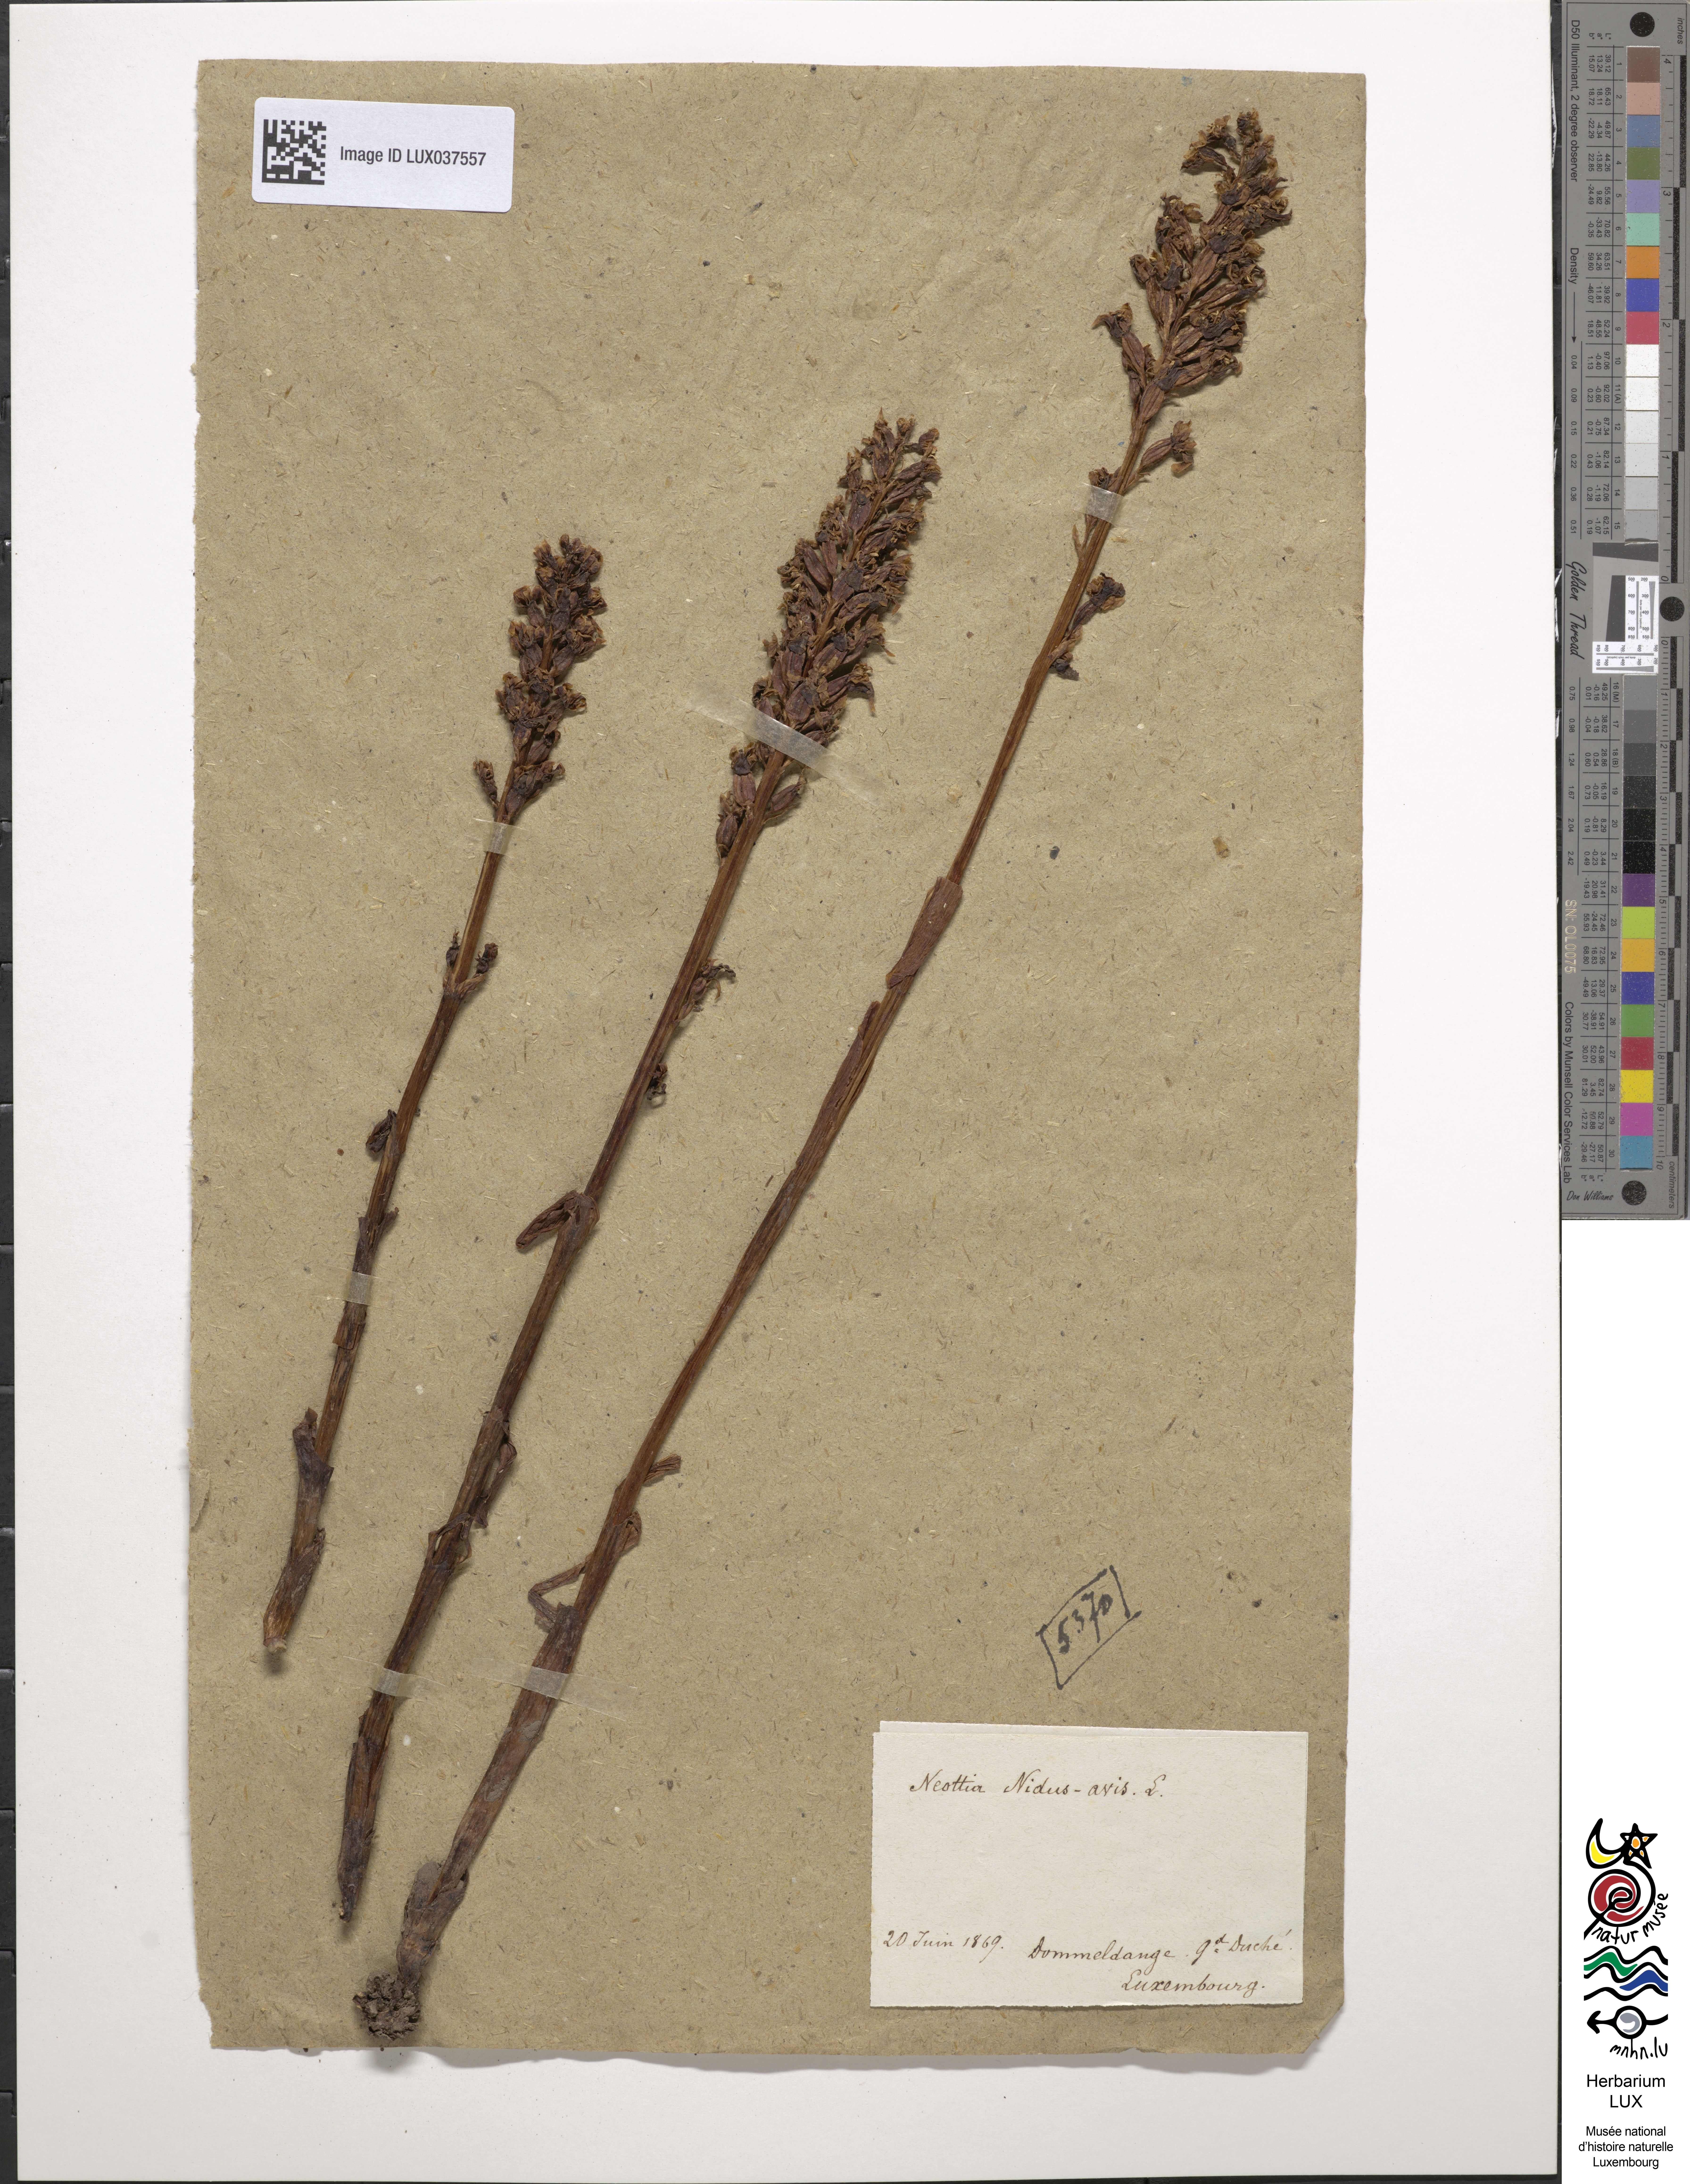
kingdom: Plantae
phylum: Tracheophyta
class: Liliopsida
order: Asparagales
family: Orchidaceae
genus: Neottia
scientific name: Neottia nidus-avis
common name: Bird's-nest orchid
